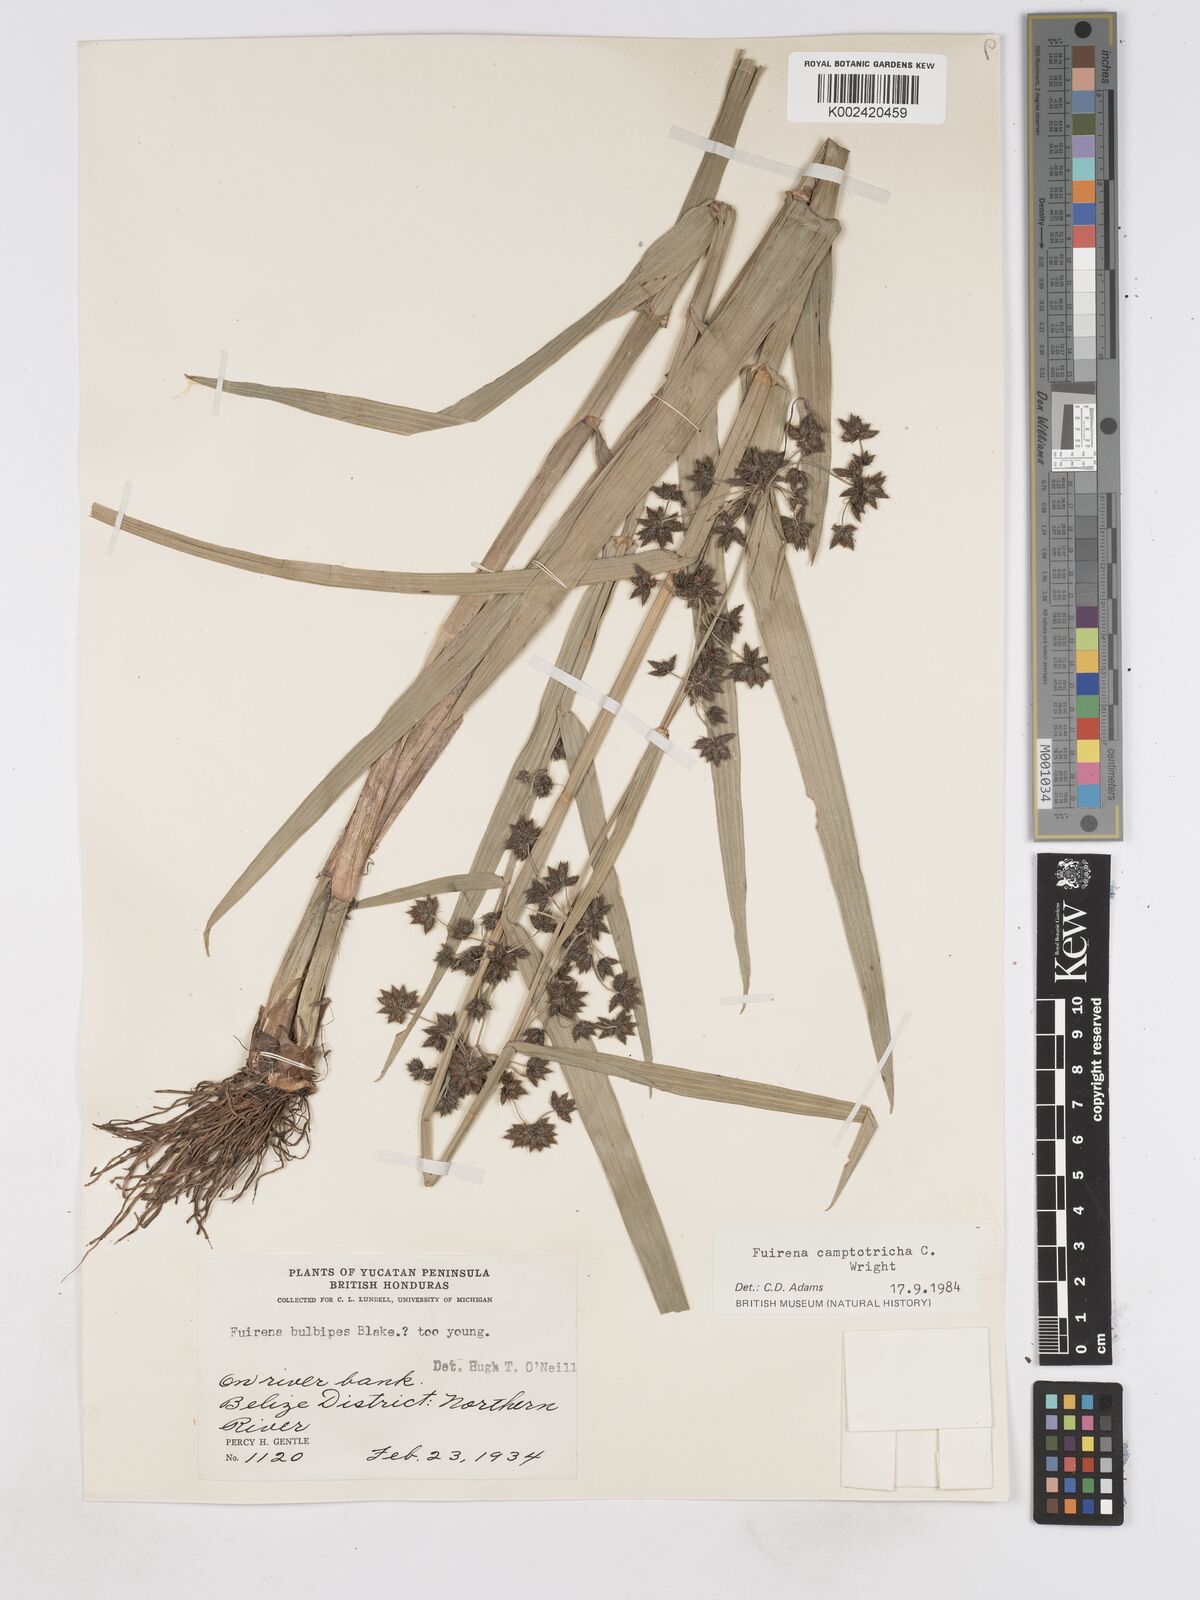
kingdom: Plantae
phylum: Tracheophyta
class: Liliopsida
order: Poales
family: Cyperaceae
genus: Fuirena
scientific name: Fuirena camptotricha
